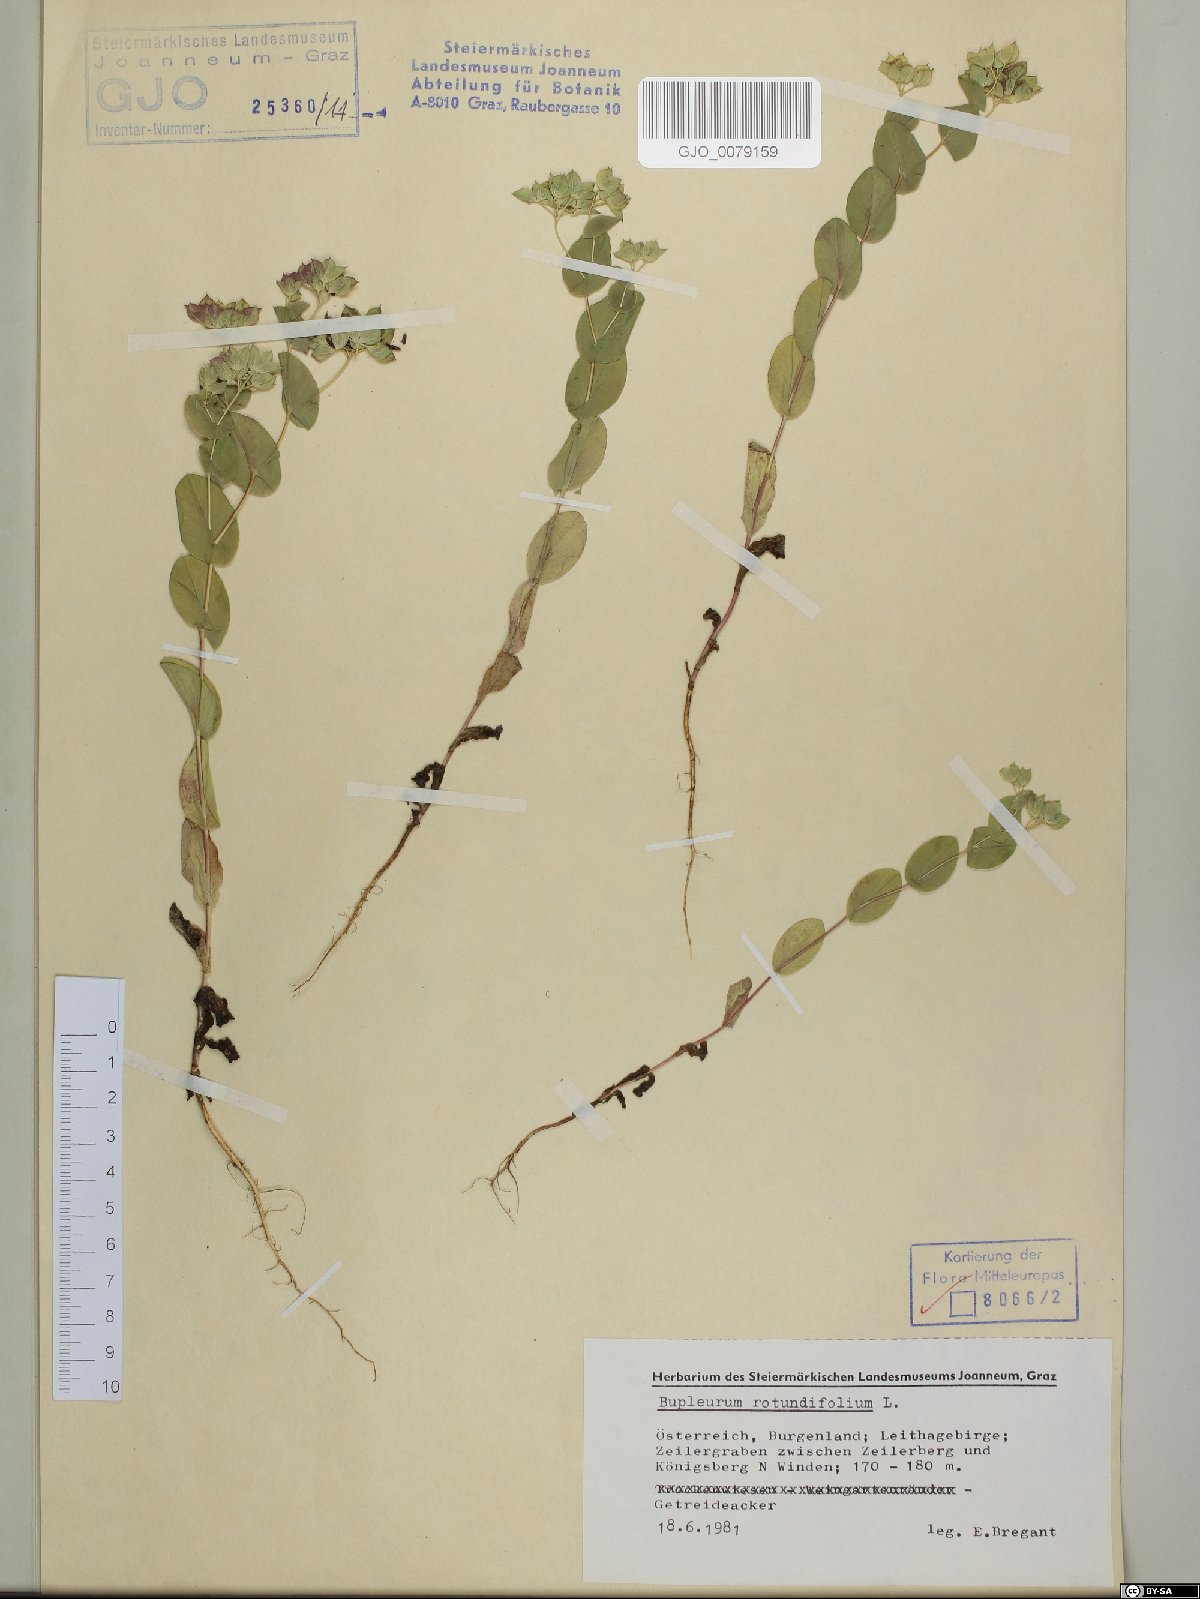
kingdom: Plantae
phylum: Tracheophyta
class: Magnoliopsida
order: Apiales
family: Apiaceae
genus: Bupleurum
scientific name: Bupleurum rotundifolium
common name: Thorow-wax
